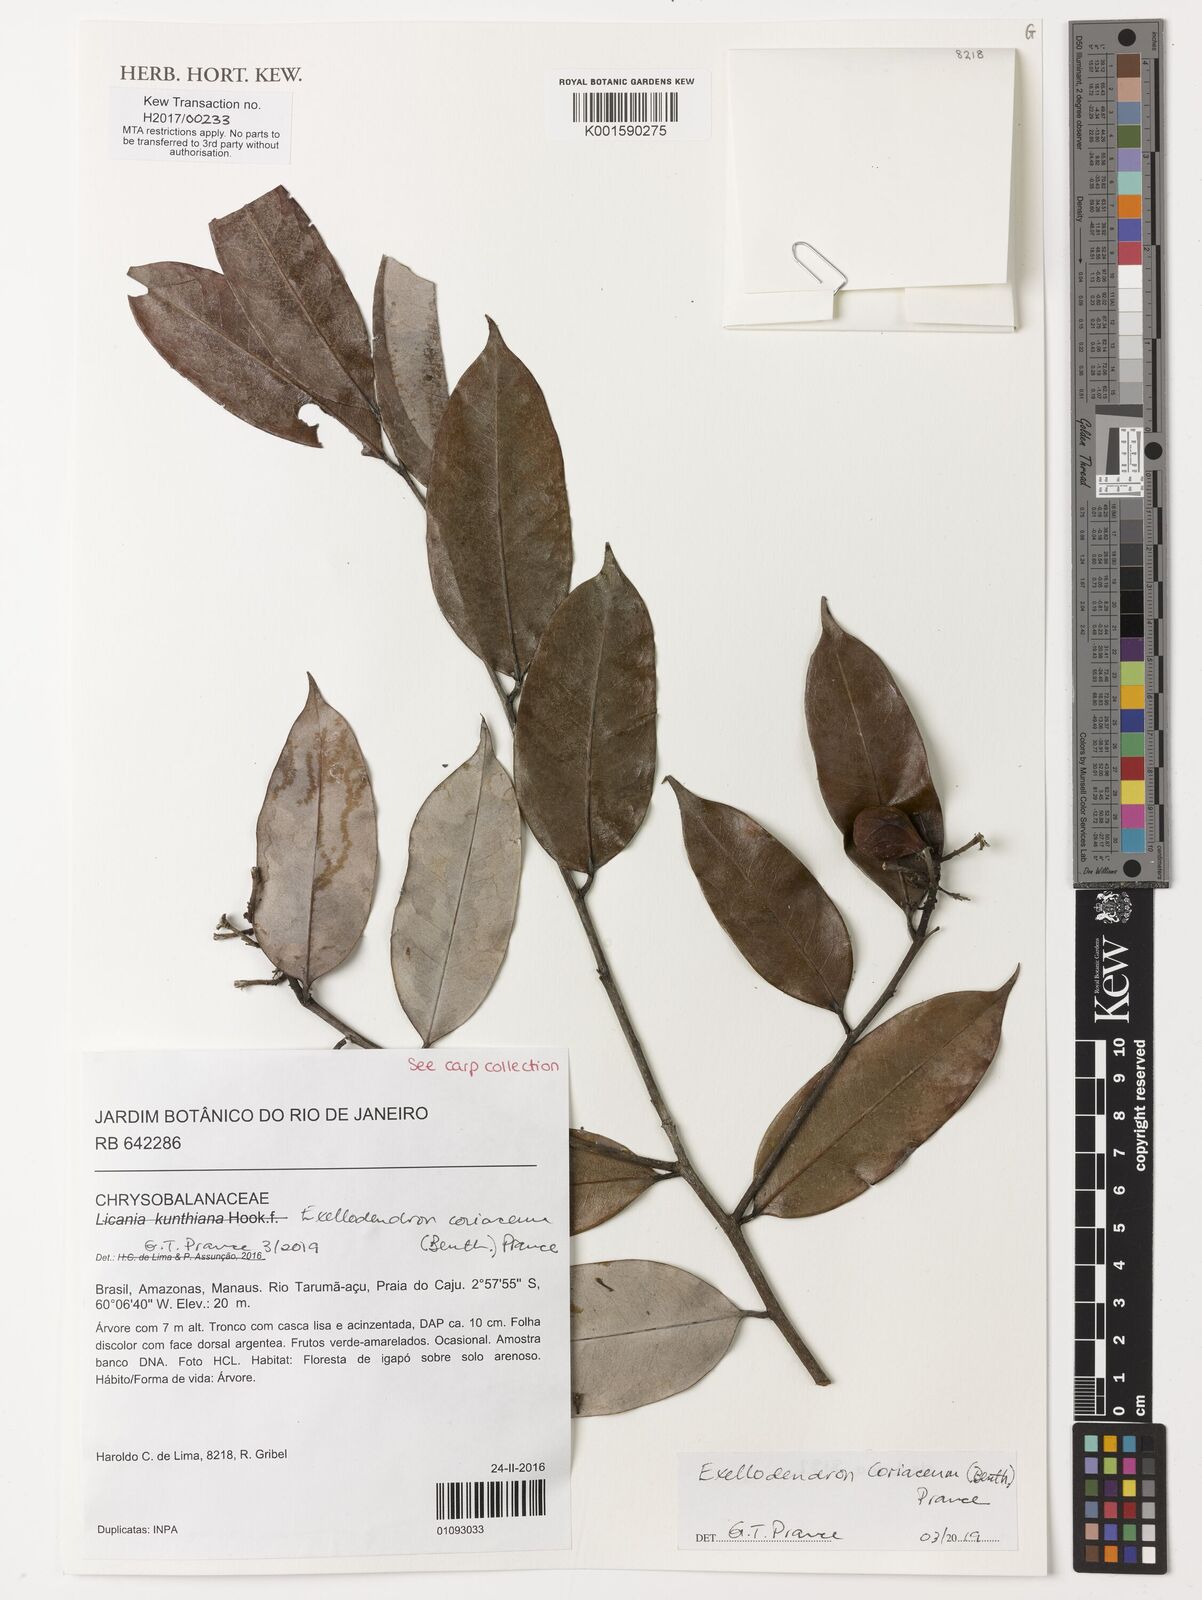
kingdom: Plantae
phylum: Tracheophyta
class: Magnoliopsida
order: Malpighiales
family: Chrysobalanaceae
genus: Exellodendron
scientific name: Exellodendron coriaceum
